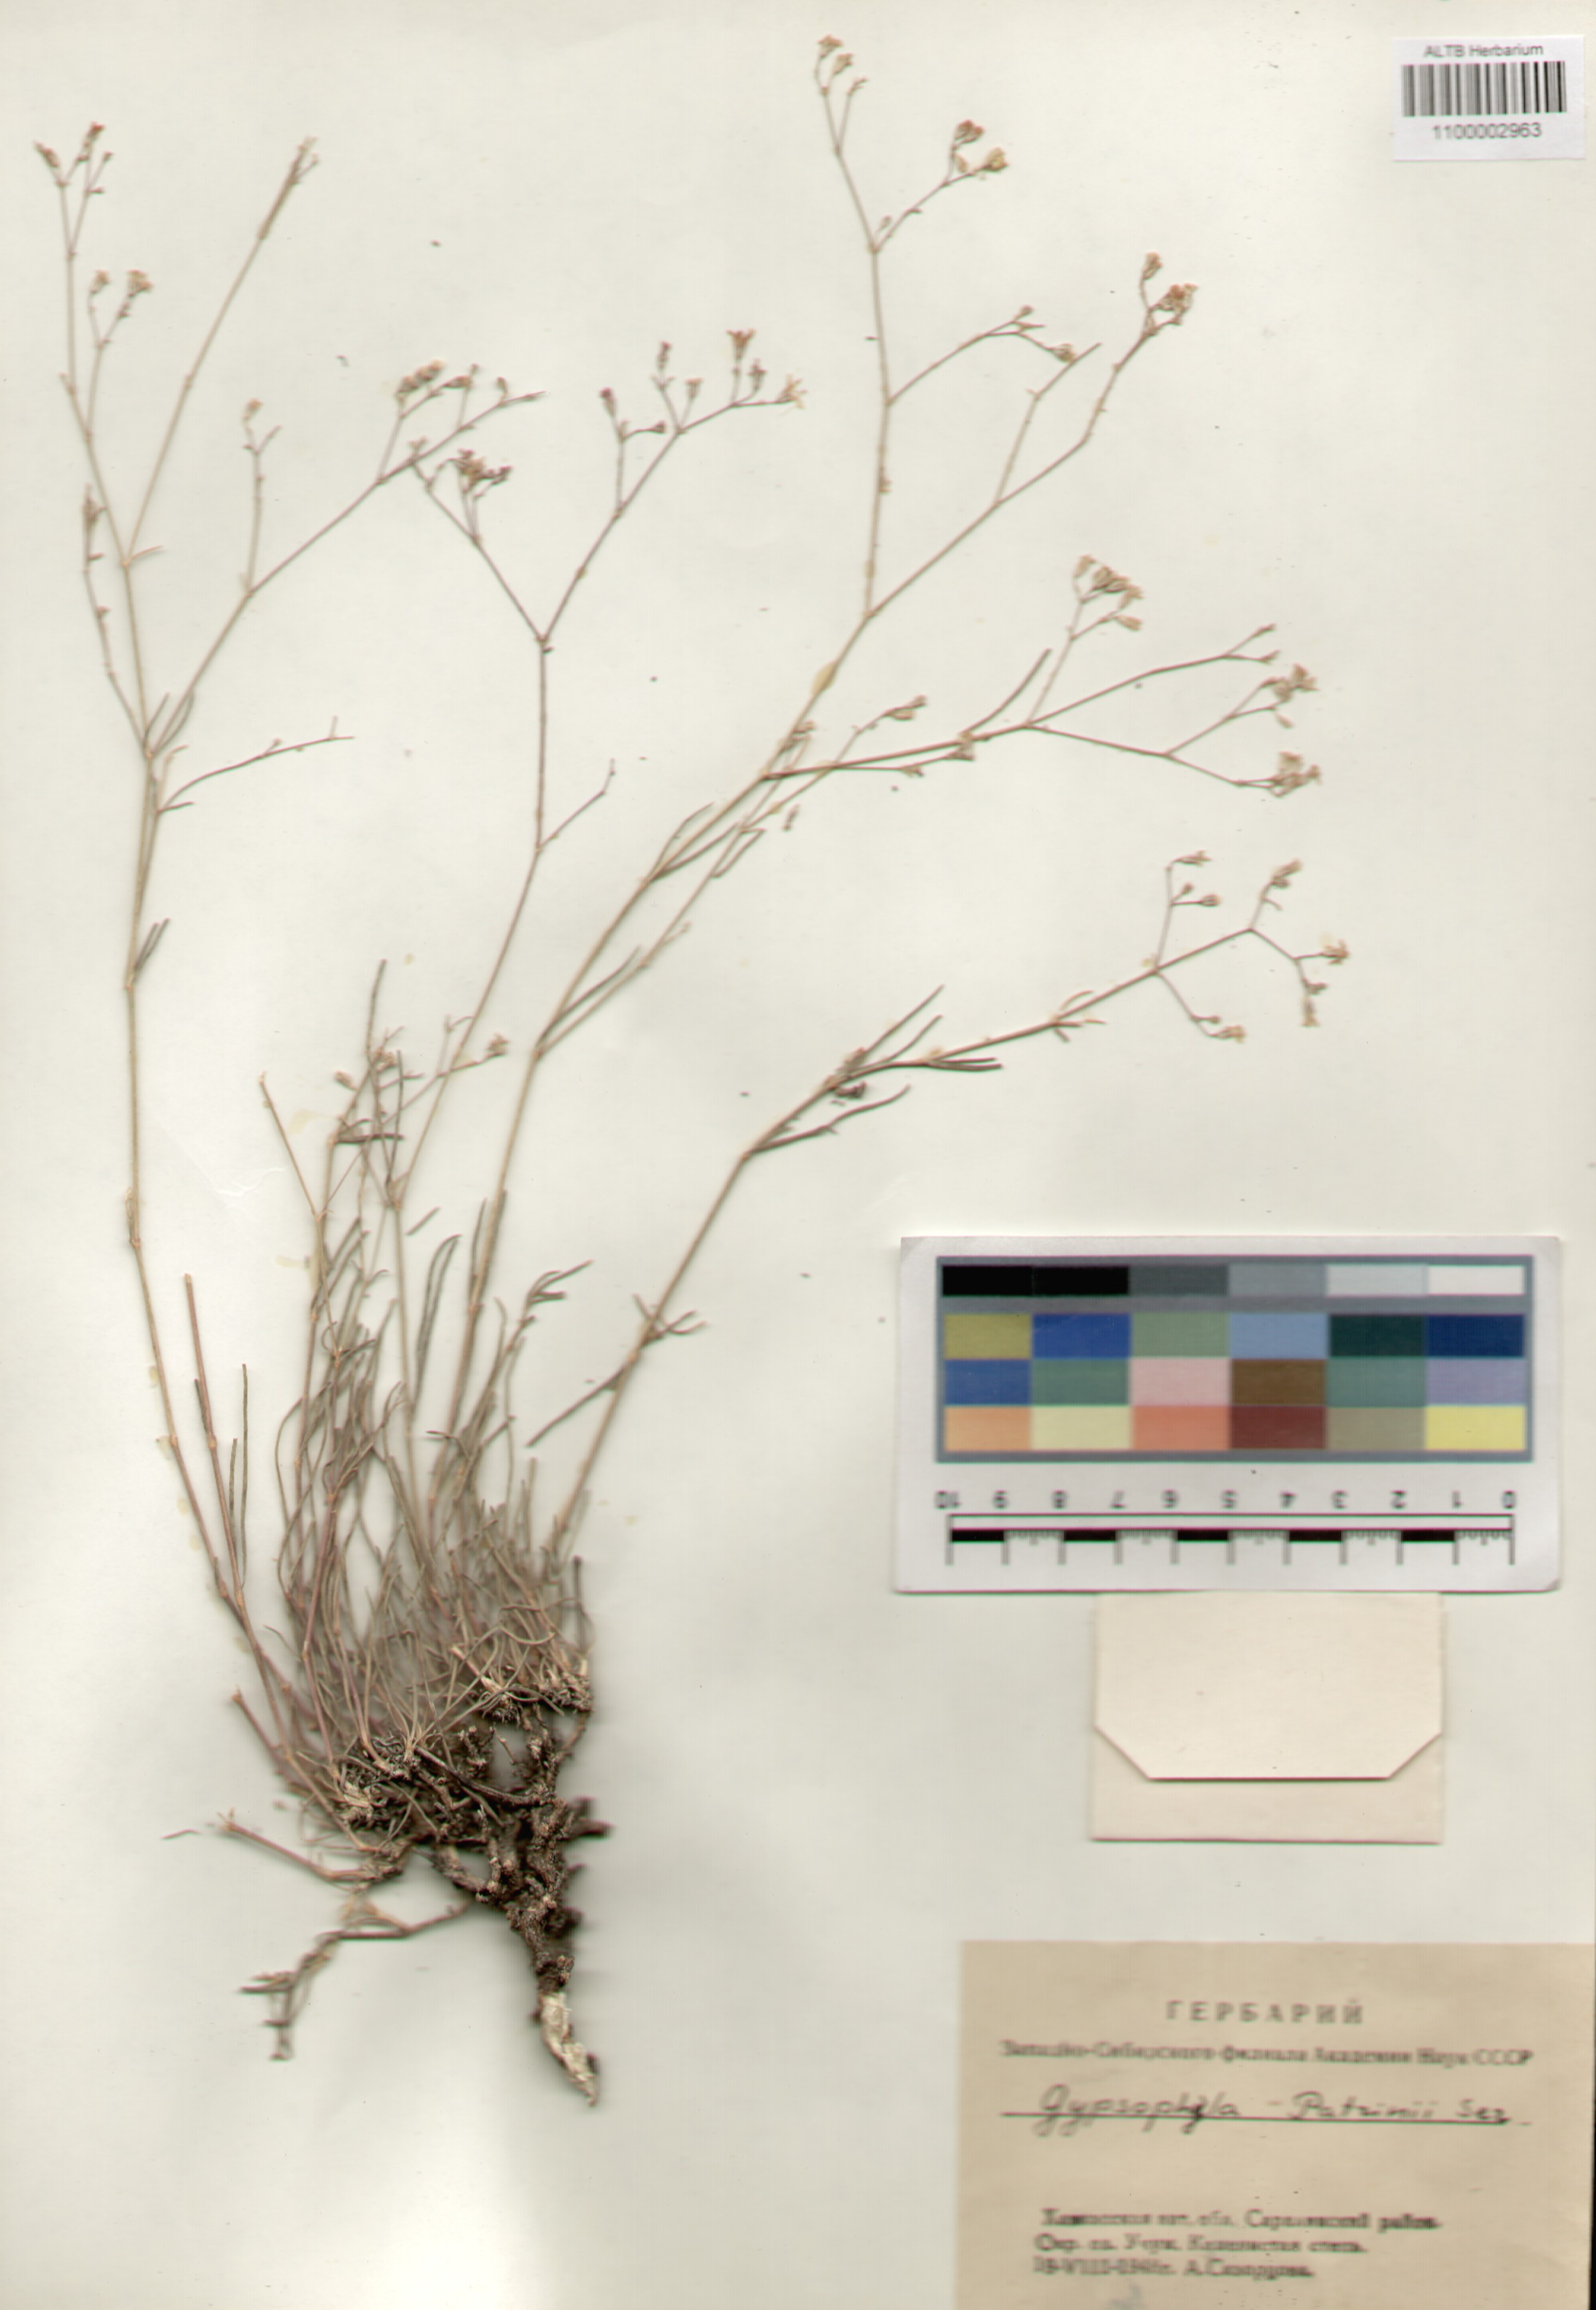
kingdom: Plantae
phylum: Tracheophyta
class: Magnoliopsida
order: Caryophyllales
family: Caryophyllaceae
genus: Gypsophila
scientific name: Gypsophila patrinii
